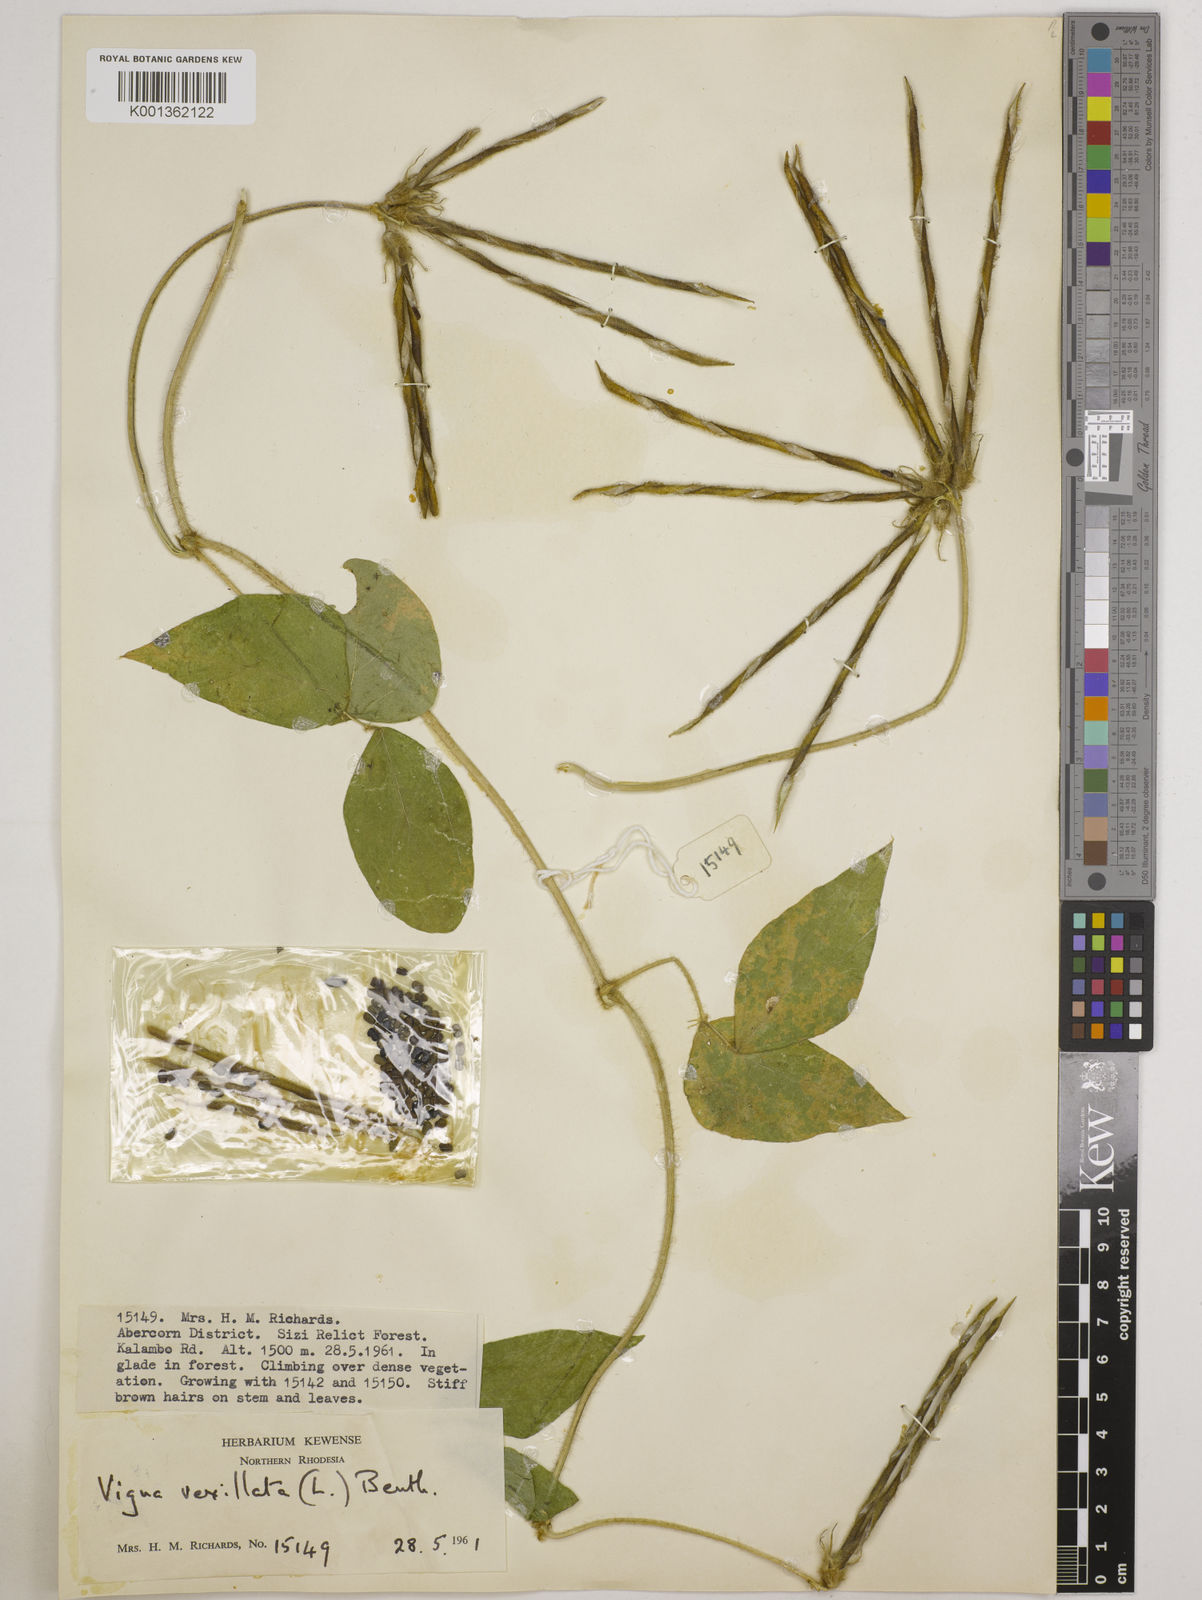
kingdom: Plantae
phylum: Tracheophyta
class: Magnoliopsida
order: Fabales
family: Fabaceae
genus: Vigna
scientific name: Vigna vexillata
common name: Zombi pea
